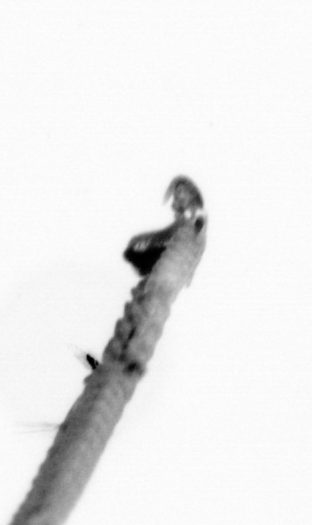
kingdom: Animalia
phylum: Annelida
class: Polychaeta
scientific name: Polychaeta
